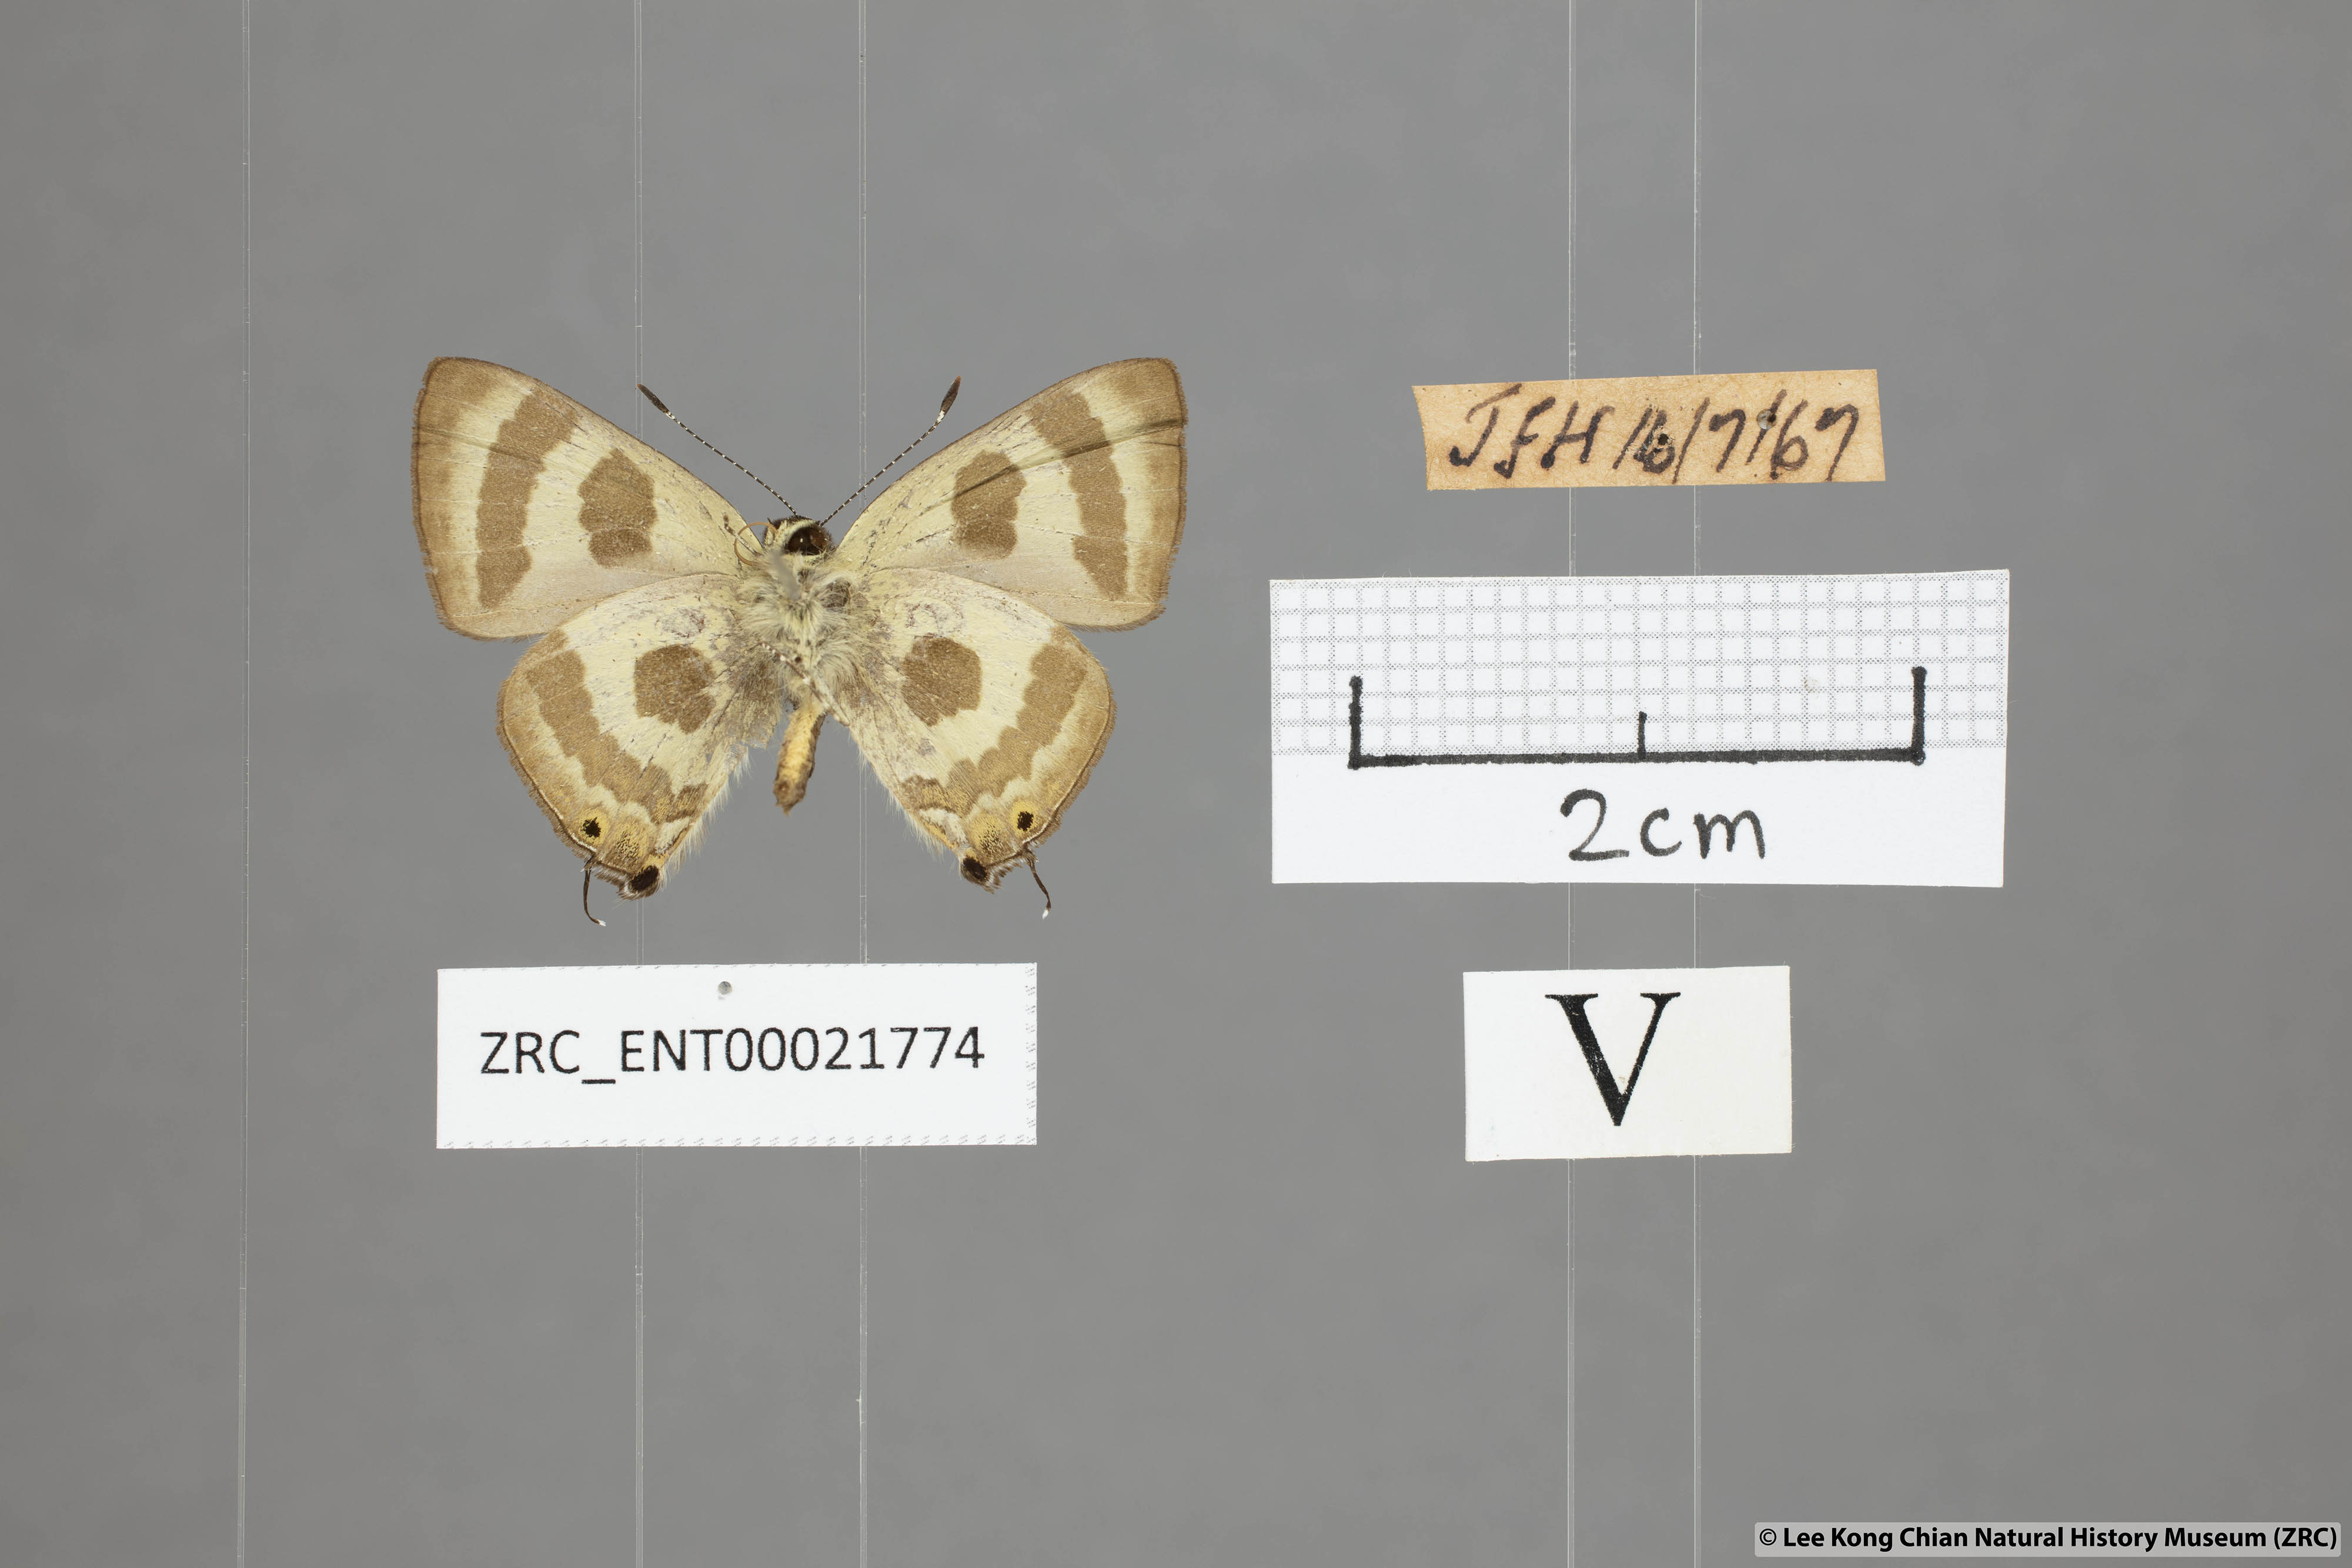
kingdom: Animalia
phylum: Arthropoda
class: Insecta
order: Lepidoptera
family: Lycaenidae
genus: Rapala
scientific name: Rapala
